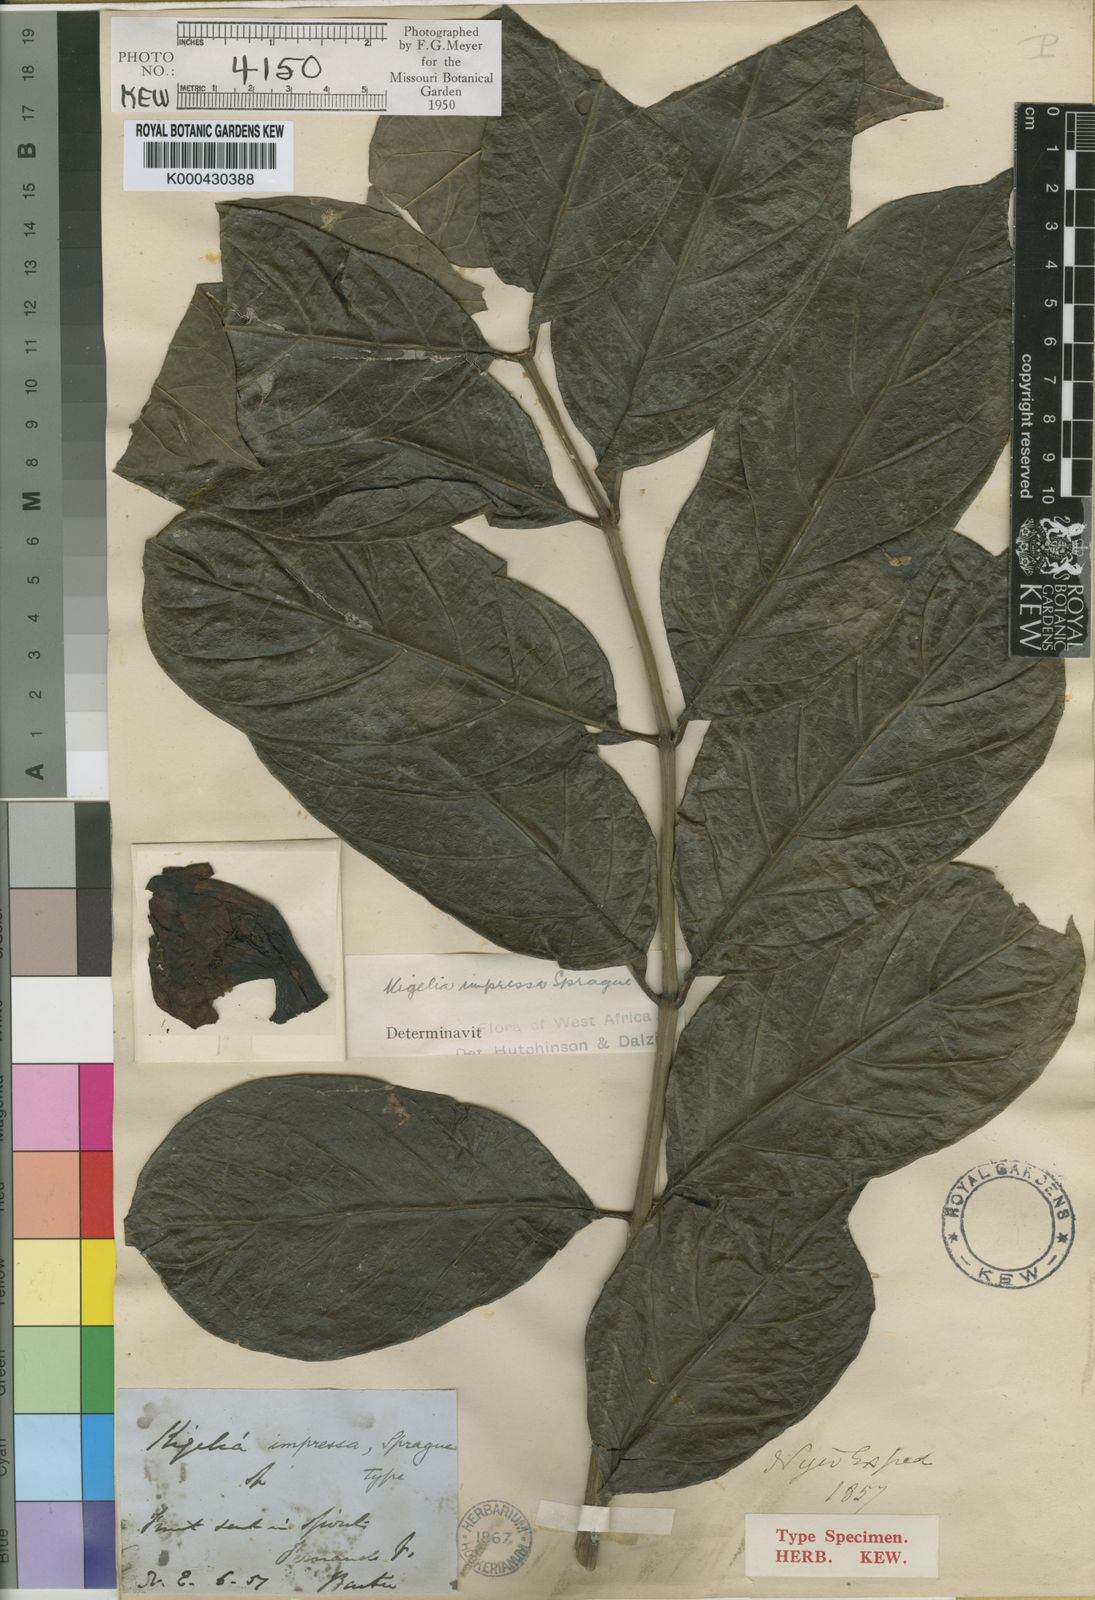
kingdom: Plantae
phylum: Tracheophyta
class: Magnoliopsida
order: Lamiales
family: Bignoniaceae
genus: Kigelia
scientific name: Kigelia africana
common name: Sausage tree
